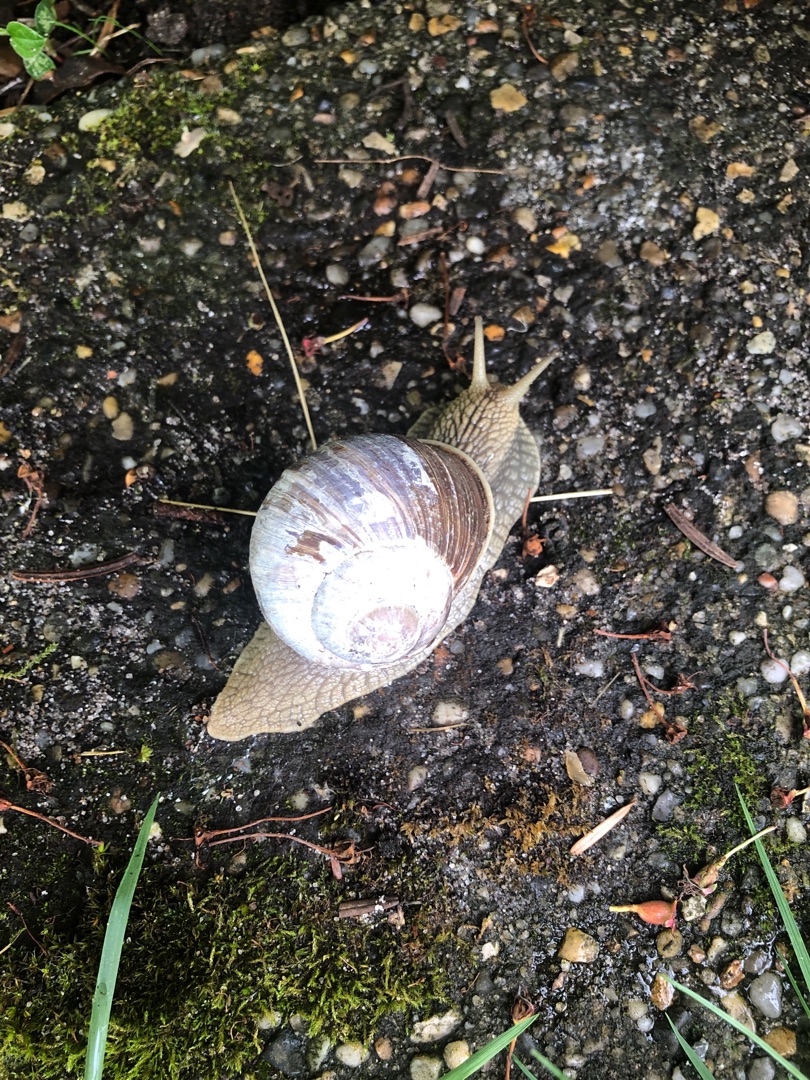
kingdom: Animalia
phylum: Mollusca
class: Gastropoda
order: Stylommatophora
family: Helicidae
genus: Helix
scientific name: Helix pomatia
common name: Vinbjergsnegl
